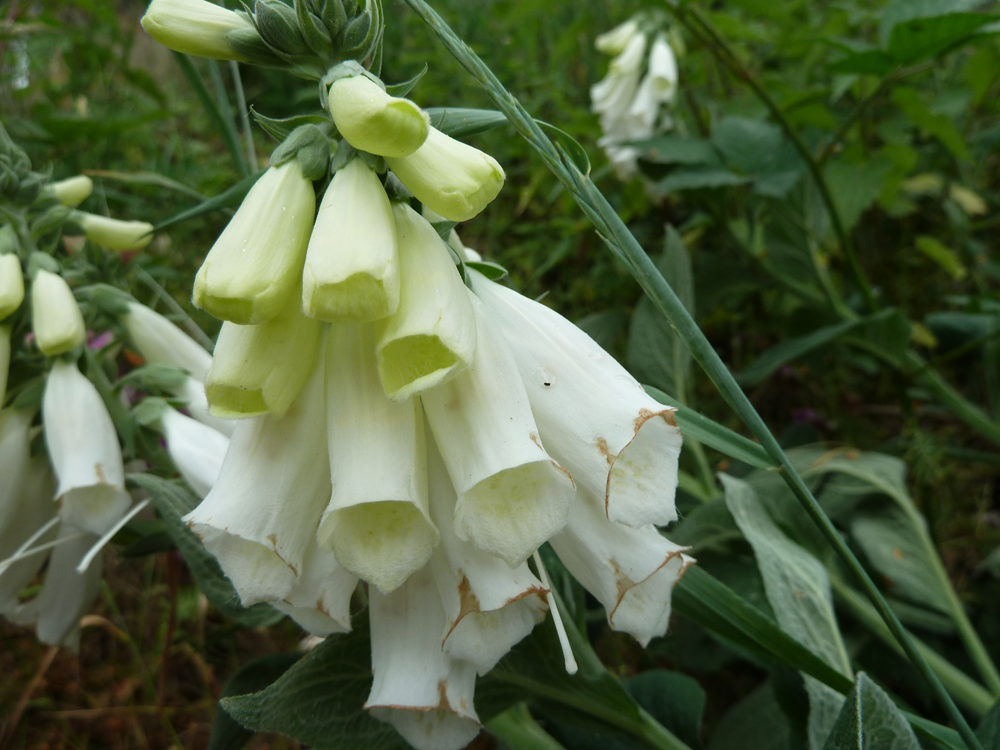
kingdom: Plantae
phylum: Tracheophyta
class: Magnoliopsida
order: Lamiales
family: Plantaginaceae
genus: Digitalis
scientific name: Digitalis purpurea
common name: Foxglove
